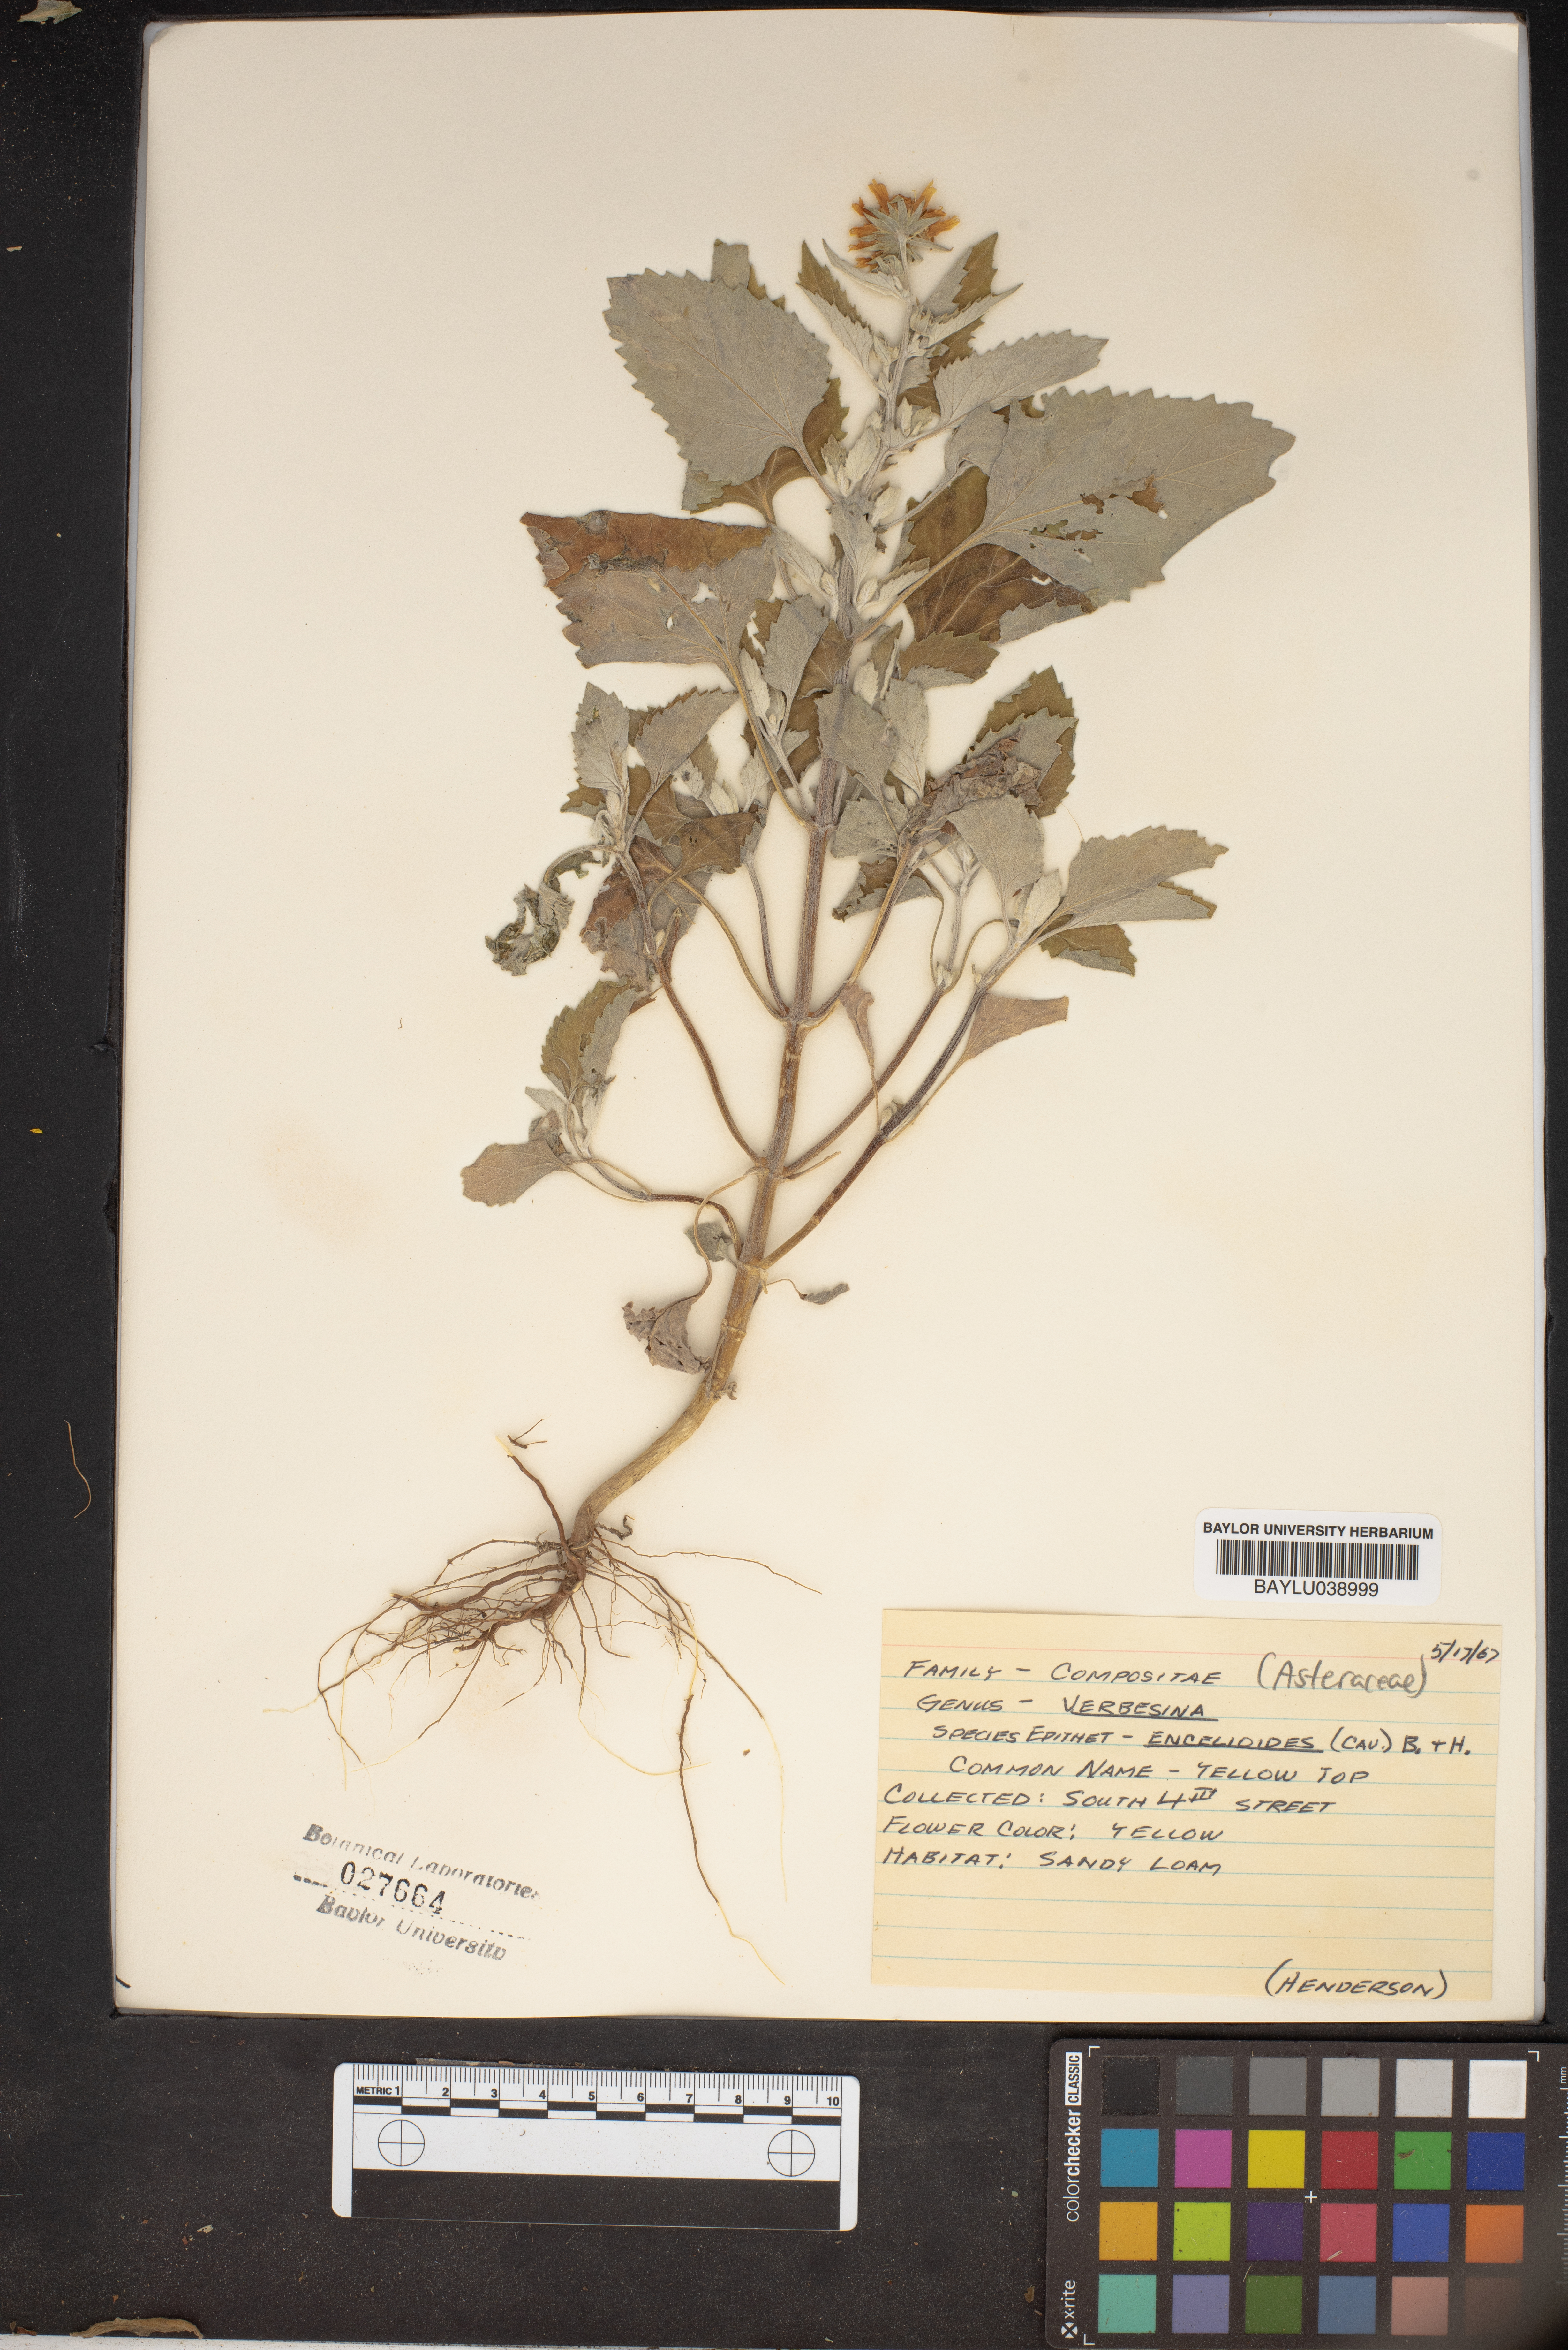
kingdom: Plantae
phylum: Tracheophyta
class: Magnoliopsida
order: Asterales
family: Asteraceae
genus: Verbesina
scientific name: Verbesina encelioides
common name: Golden crownbeard
